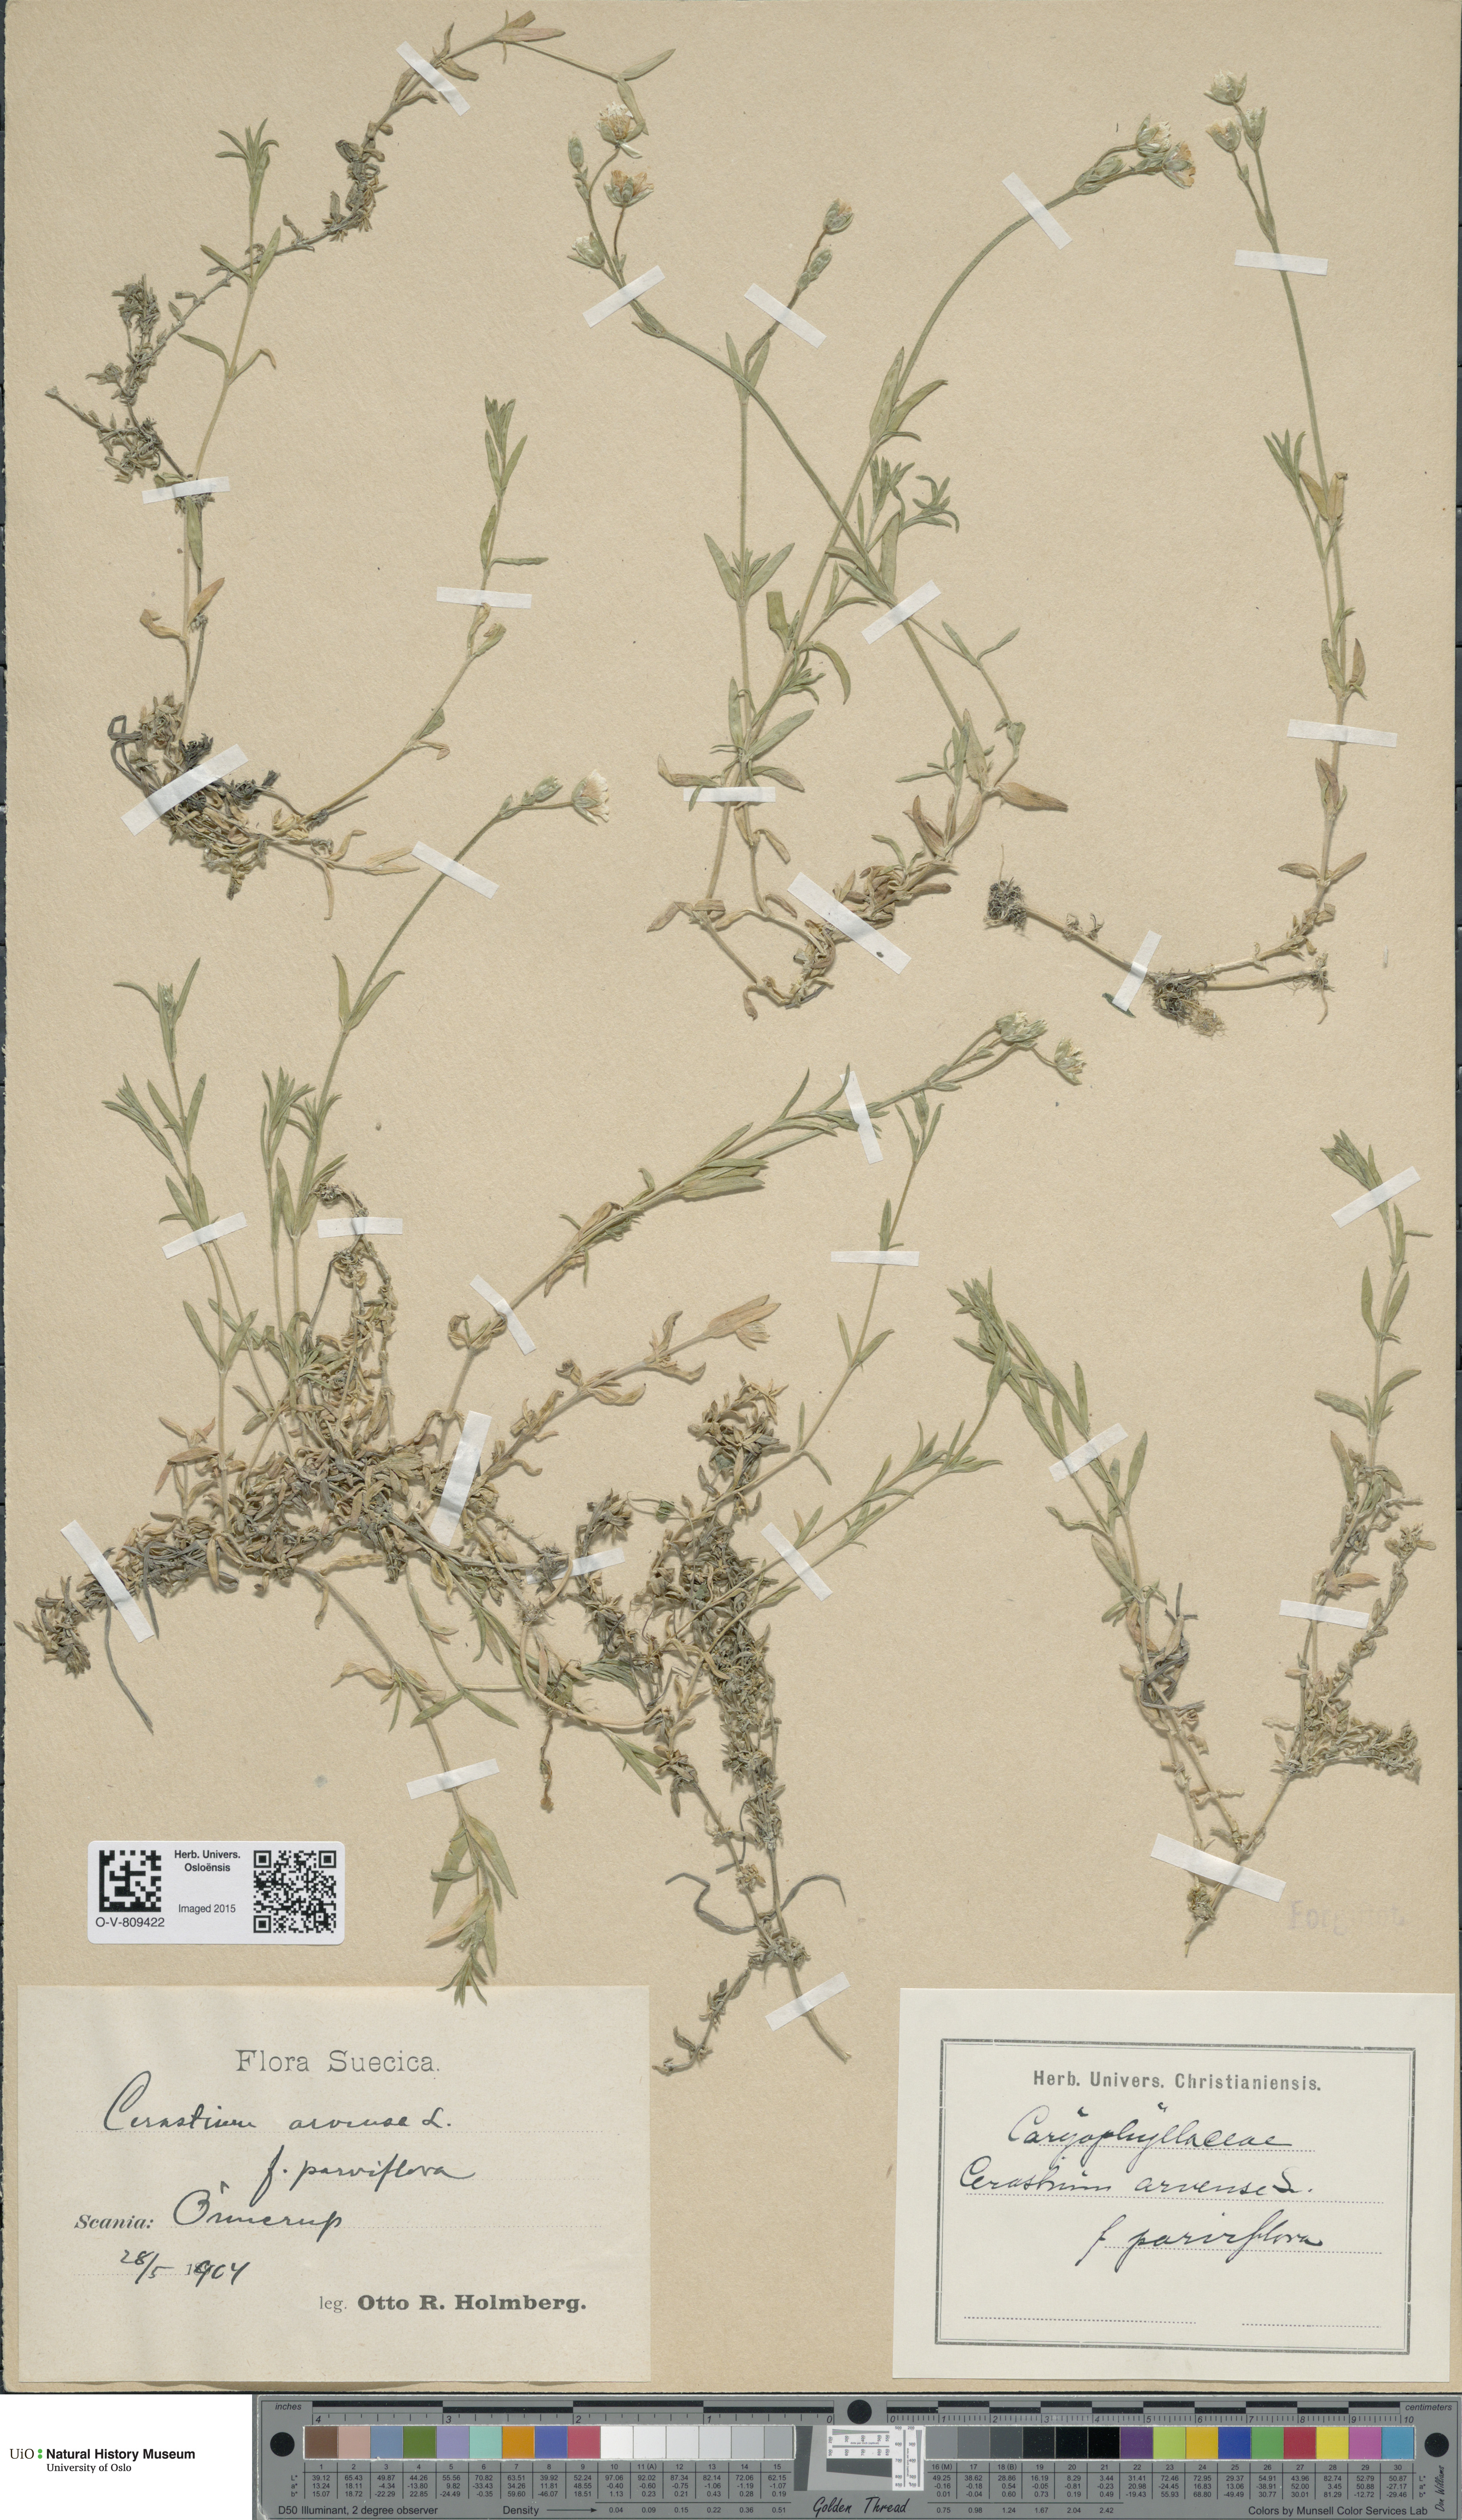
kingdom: Plantae
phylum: Tracheophyta
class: Magnoliopsida
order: Caryophyllales
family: Caryophyllaceae
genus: Cerastium
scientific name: Cerastium arvense
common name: Field mouse-ear
